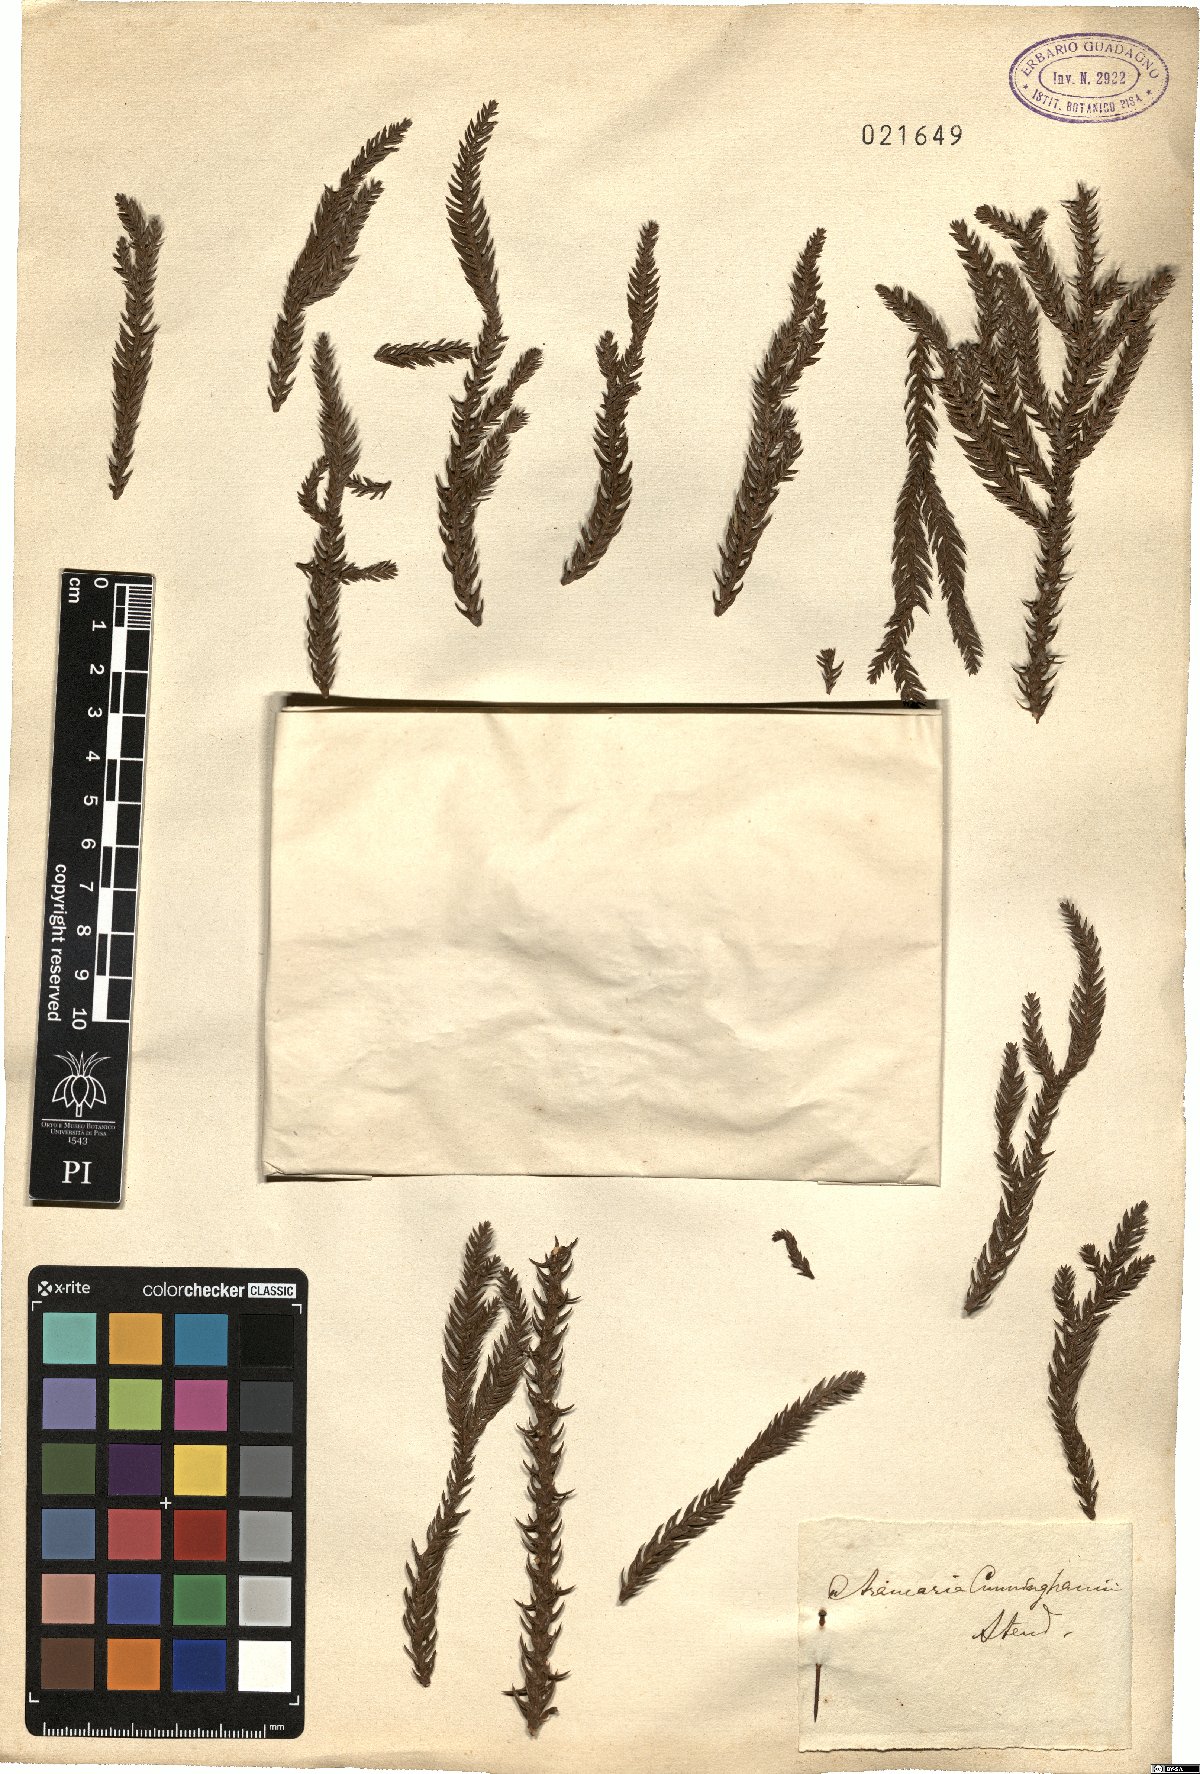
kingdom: Plantae
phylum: Tracheophyta
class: Pinopsida
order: Pinales
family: Araucariaceae
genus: Araucaria
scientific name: Araucaria cunninghamii
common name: Colonial pine
